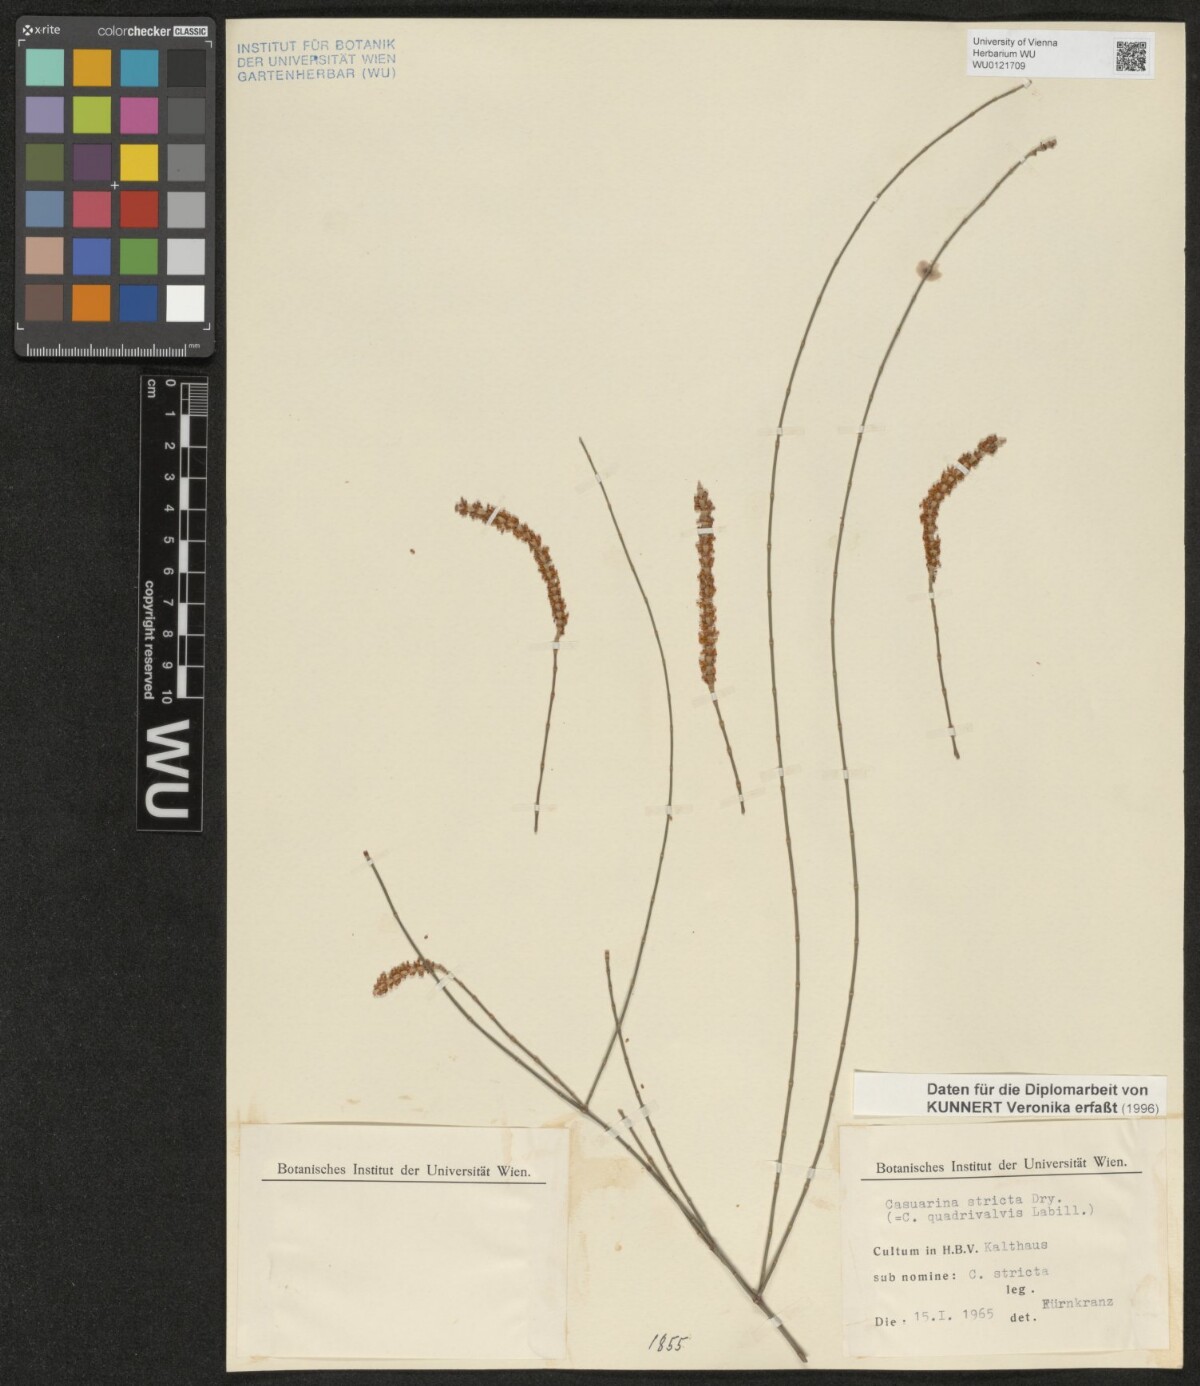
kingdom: Plantae
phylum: Tracheophyta
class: Magnoliopsida
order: Fagales
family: Casuarinaceae
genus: Casuarina
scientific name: Casuarina stricta
